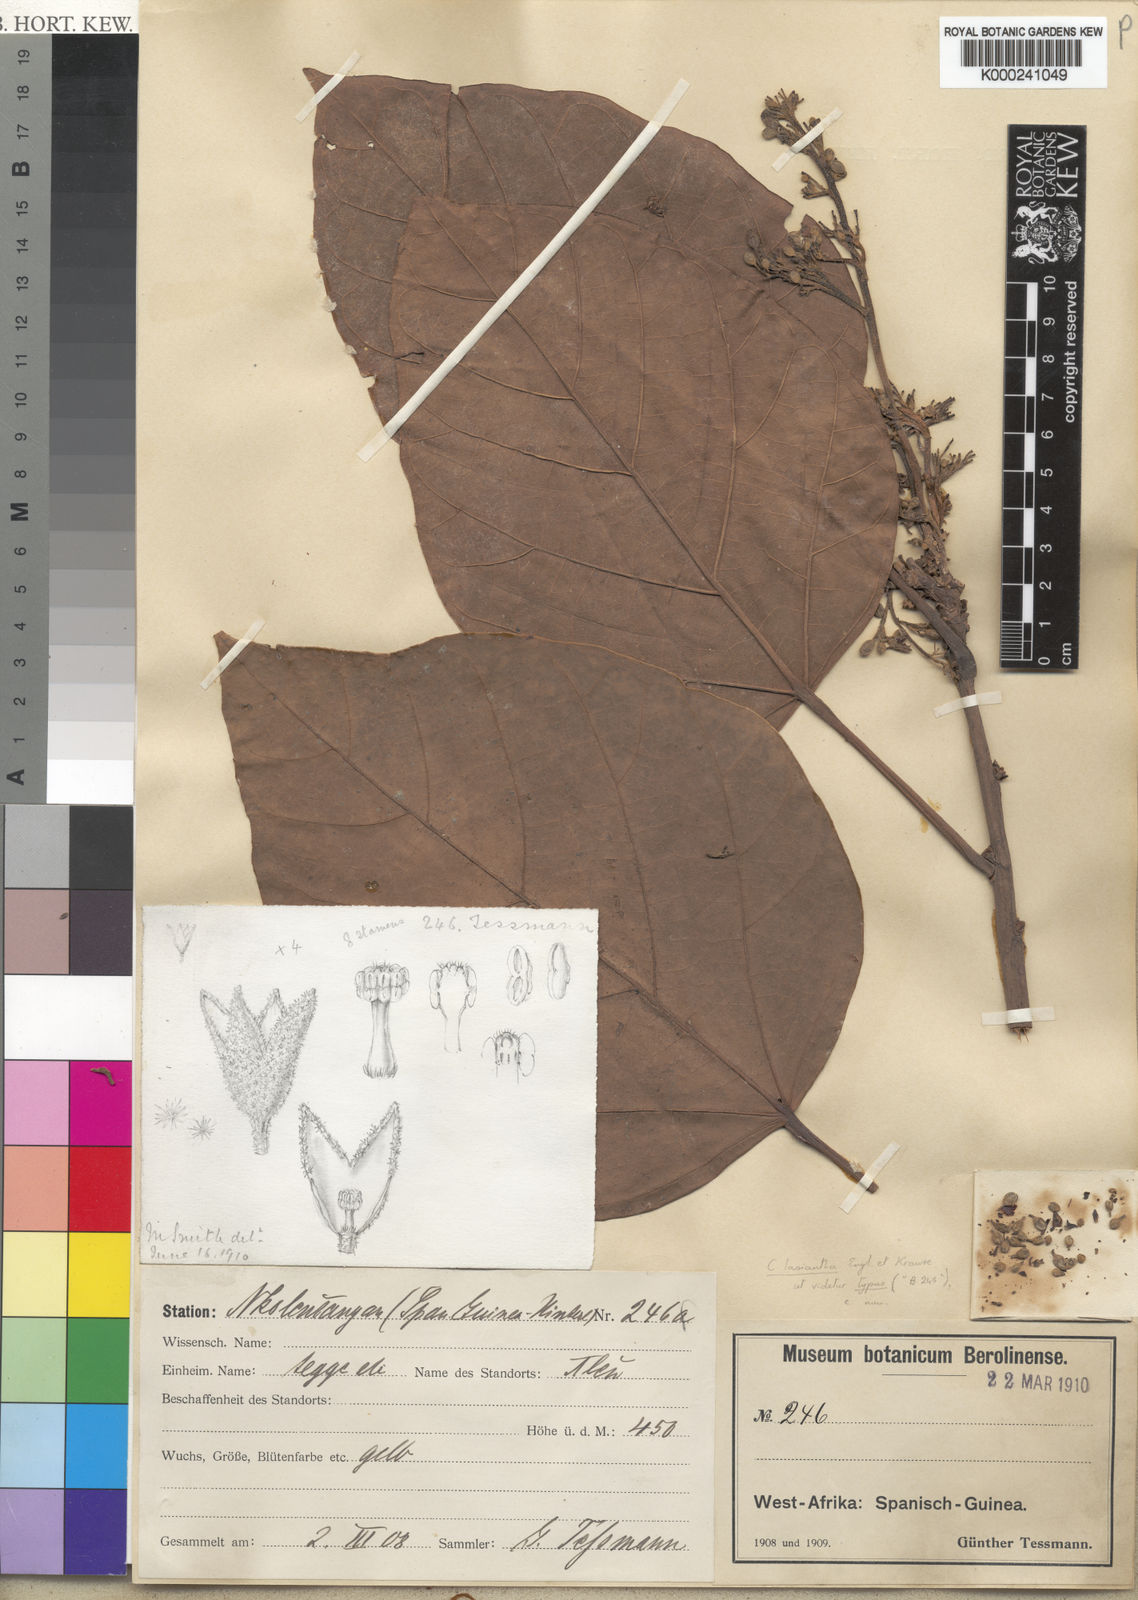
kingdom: Plantae
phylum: Tracheophyta
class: Magnoliopsida
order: Malvales
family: Malvaceae
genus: Cola
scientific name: Cola lasiantha
